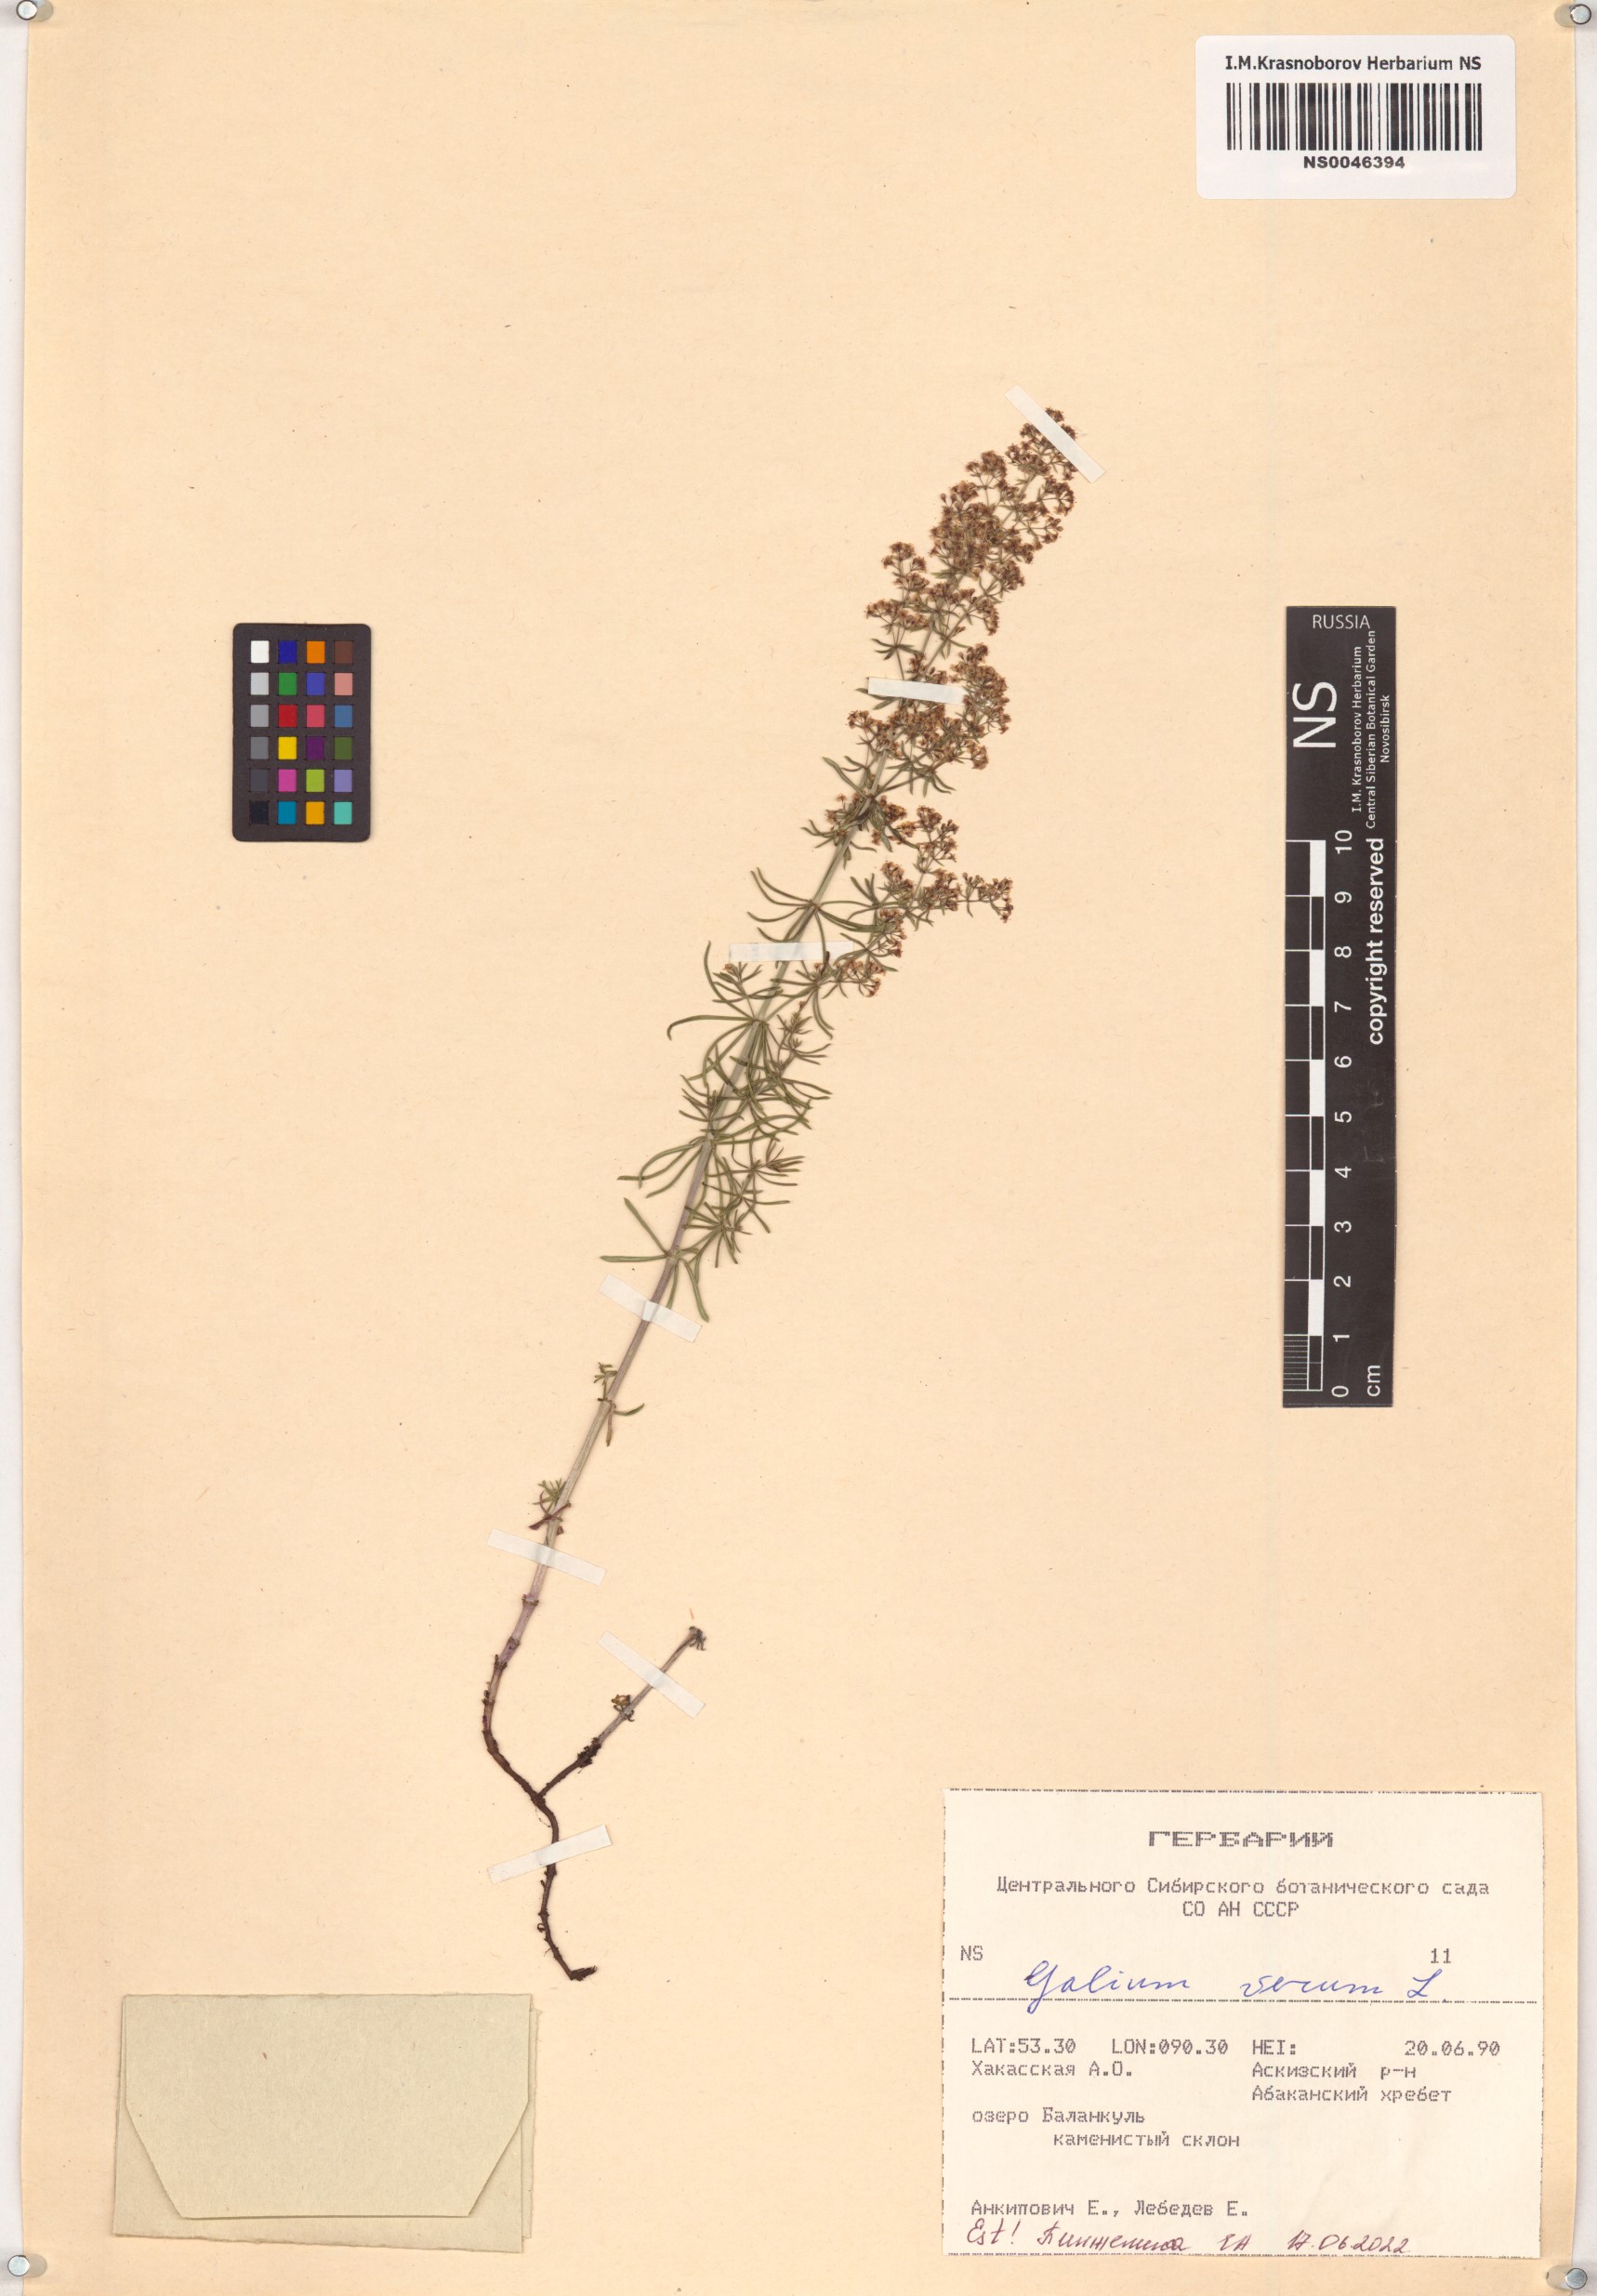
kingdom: Plantae
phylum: Tracheophyta
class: Magnoliopsida
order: Gentianales
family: Rubiaceae
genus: Galium
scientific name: Galium verum
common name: Lady's bedstraw
